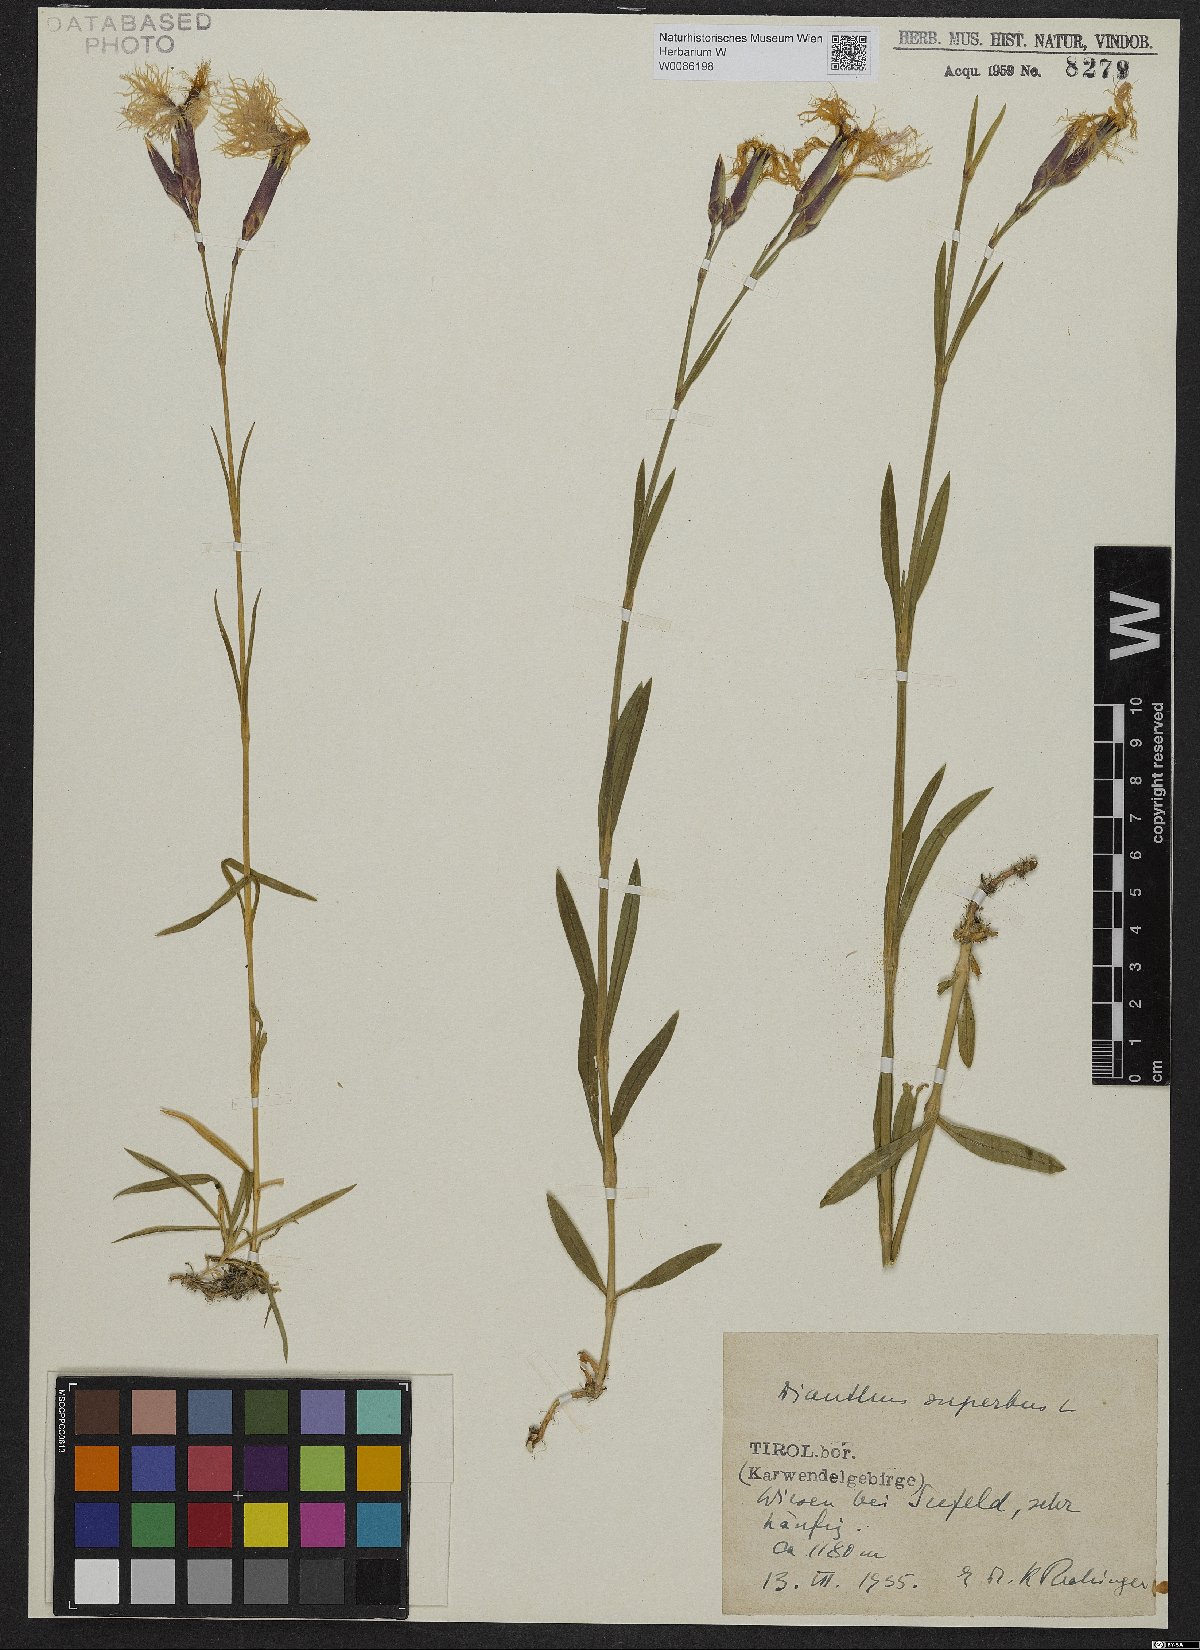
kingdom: Plantae
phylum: Tracheophyta
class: Magnoliopsida
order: Caryophyllales
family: Caryophyllaceae
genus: Dianthus
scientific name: Dianthus superbus
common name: Fringed pink
